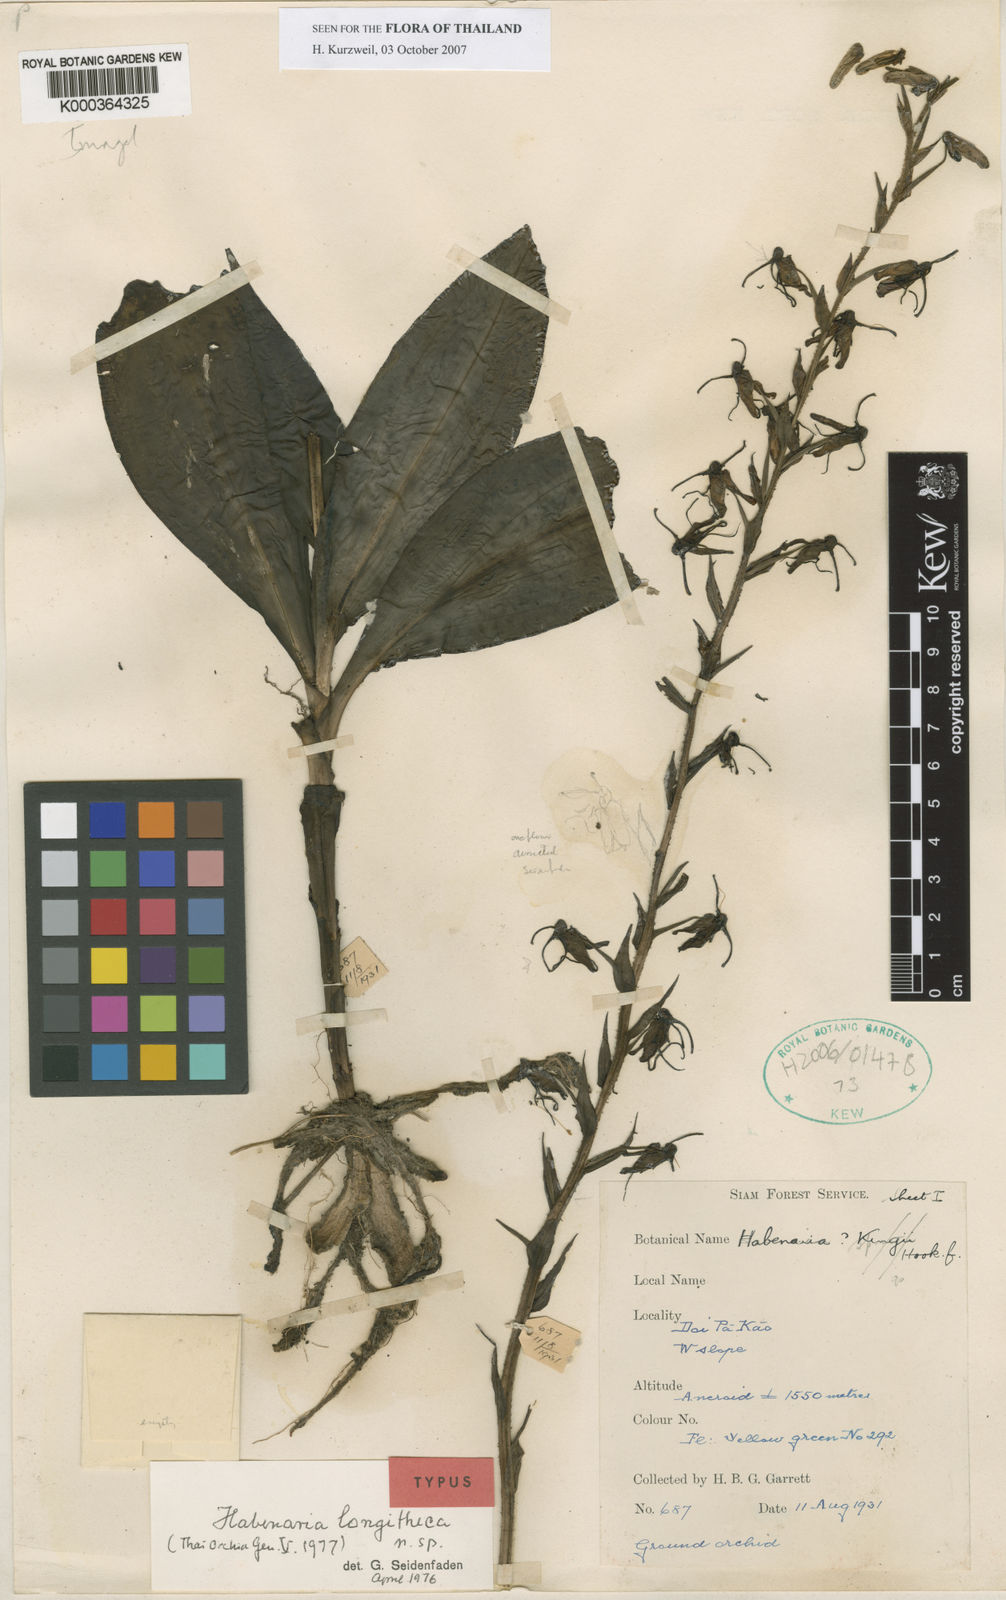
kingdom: Plantae
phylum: Tracheophyta
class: Liliopsida
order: Asparagales
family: Orchidaceae
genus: Habenaria
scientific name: Habenaria longitheca
